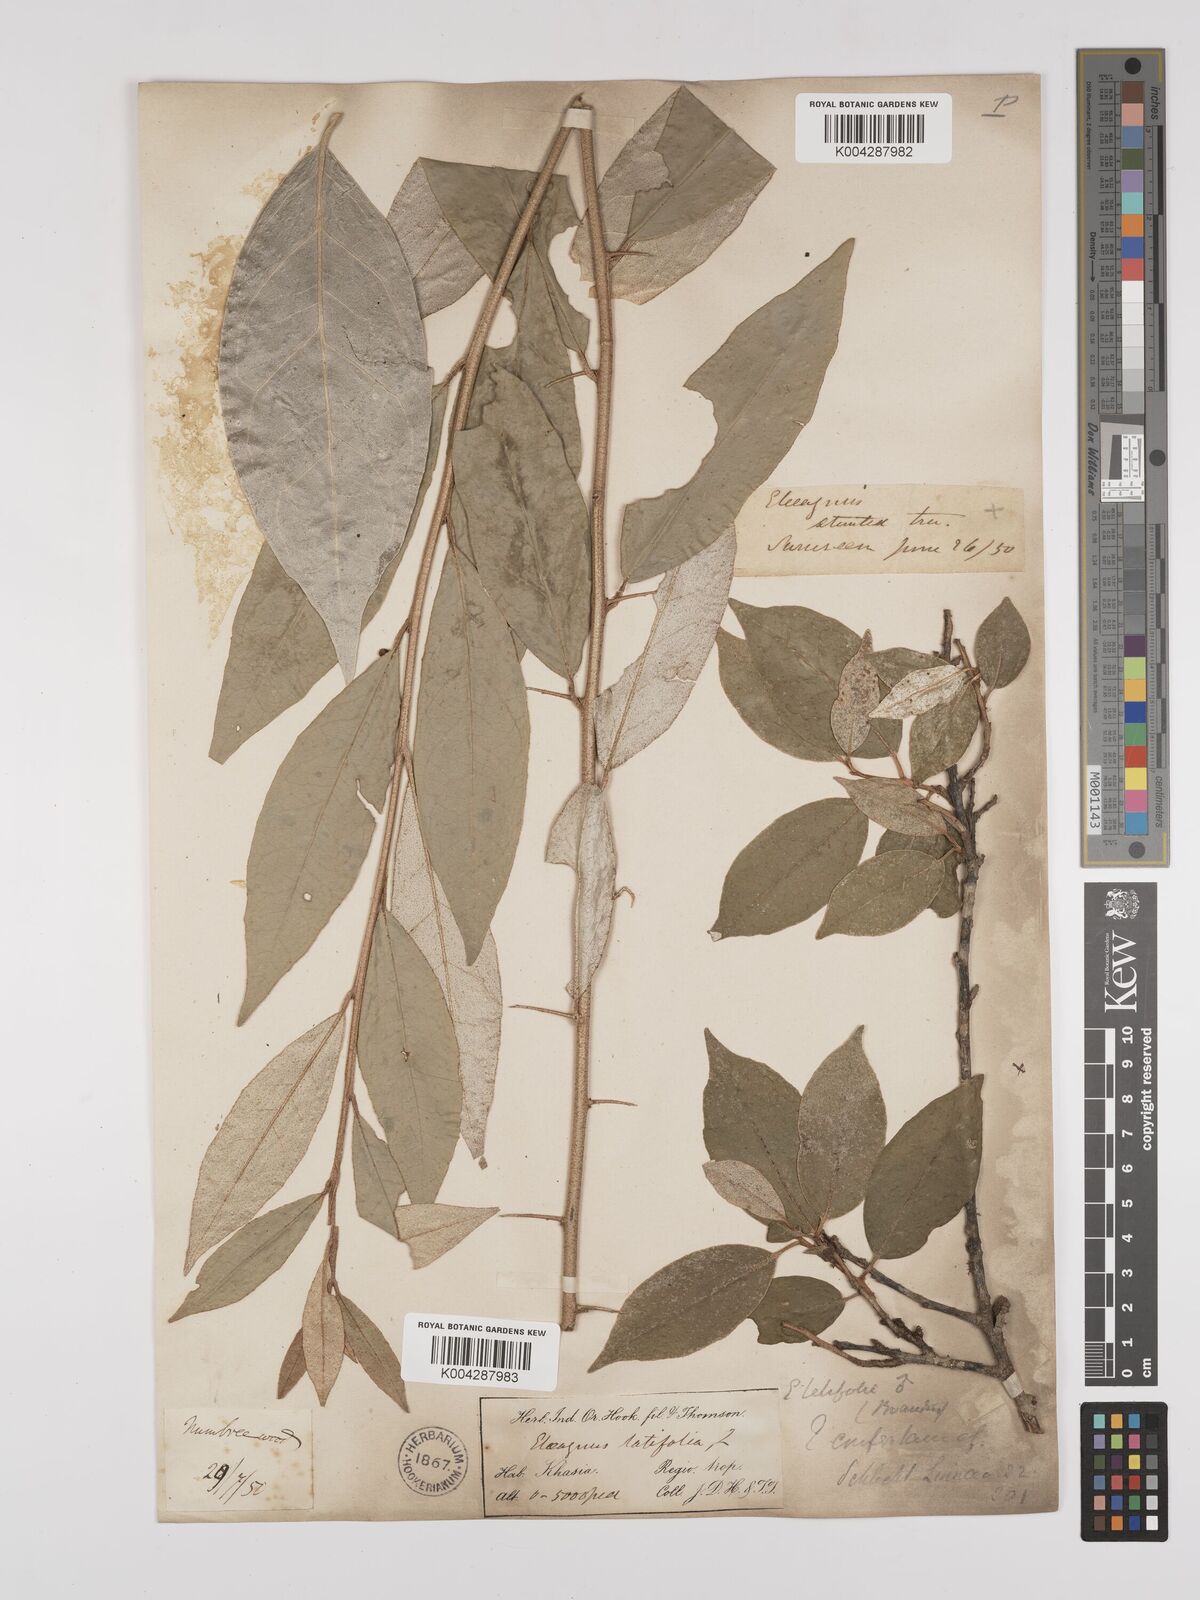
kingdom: Plantae
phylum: Tracheophyta
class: Magnoliopsida
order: Rosales
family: Elaeagnaceae
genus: Elaeagnus
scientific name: Elaeagnus latifolia
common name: Oleaster
